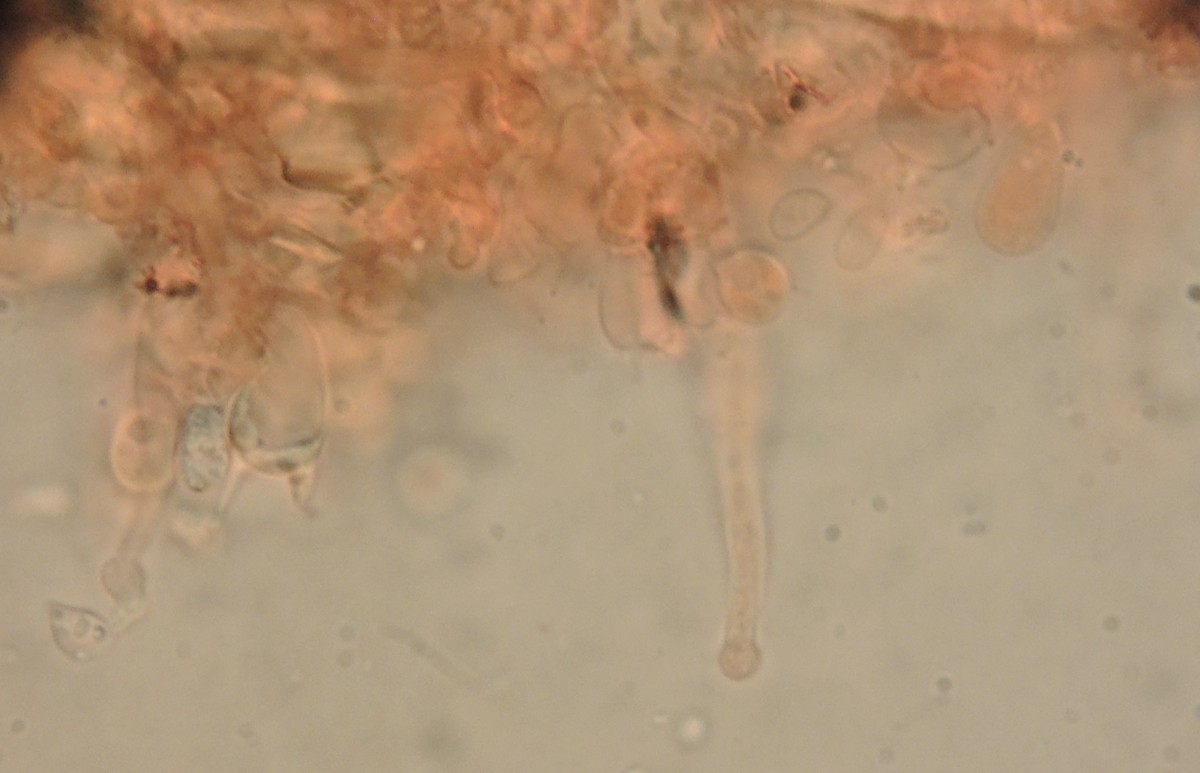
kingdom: Fungi
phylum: Basidiomycota
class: Agaricomycetes
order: Trechisporales
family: Hydnodontaceae
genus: Sphaerobasidium
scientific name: Sphaerobasidium minutum
